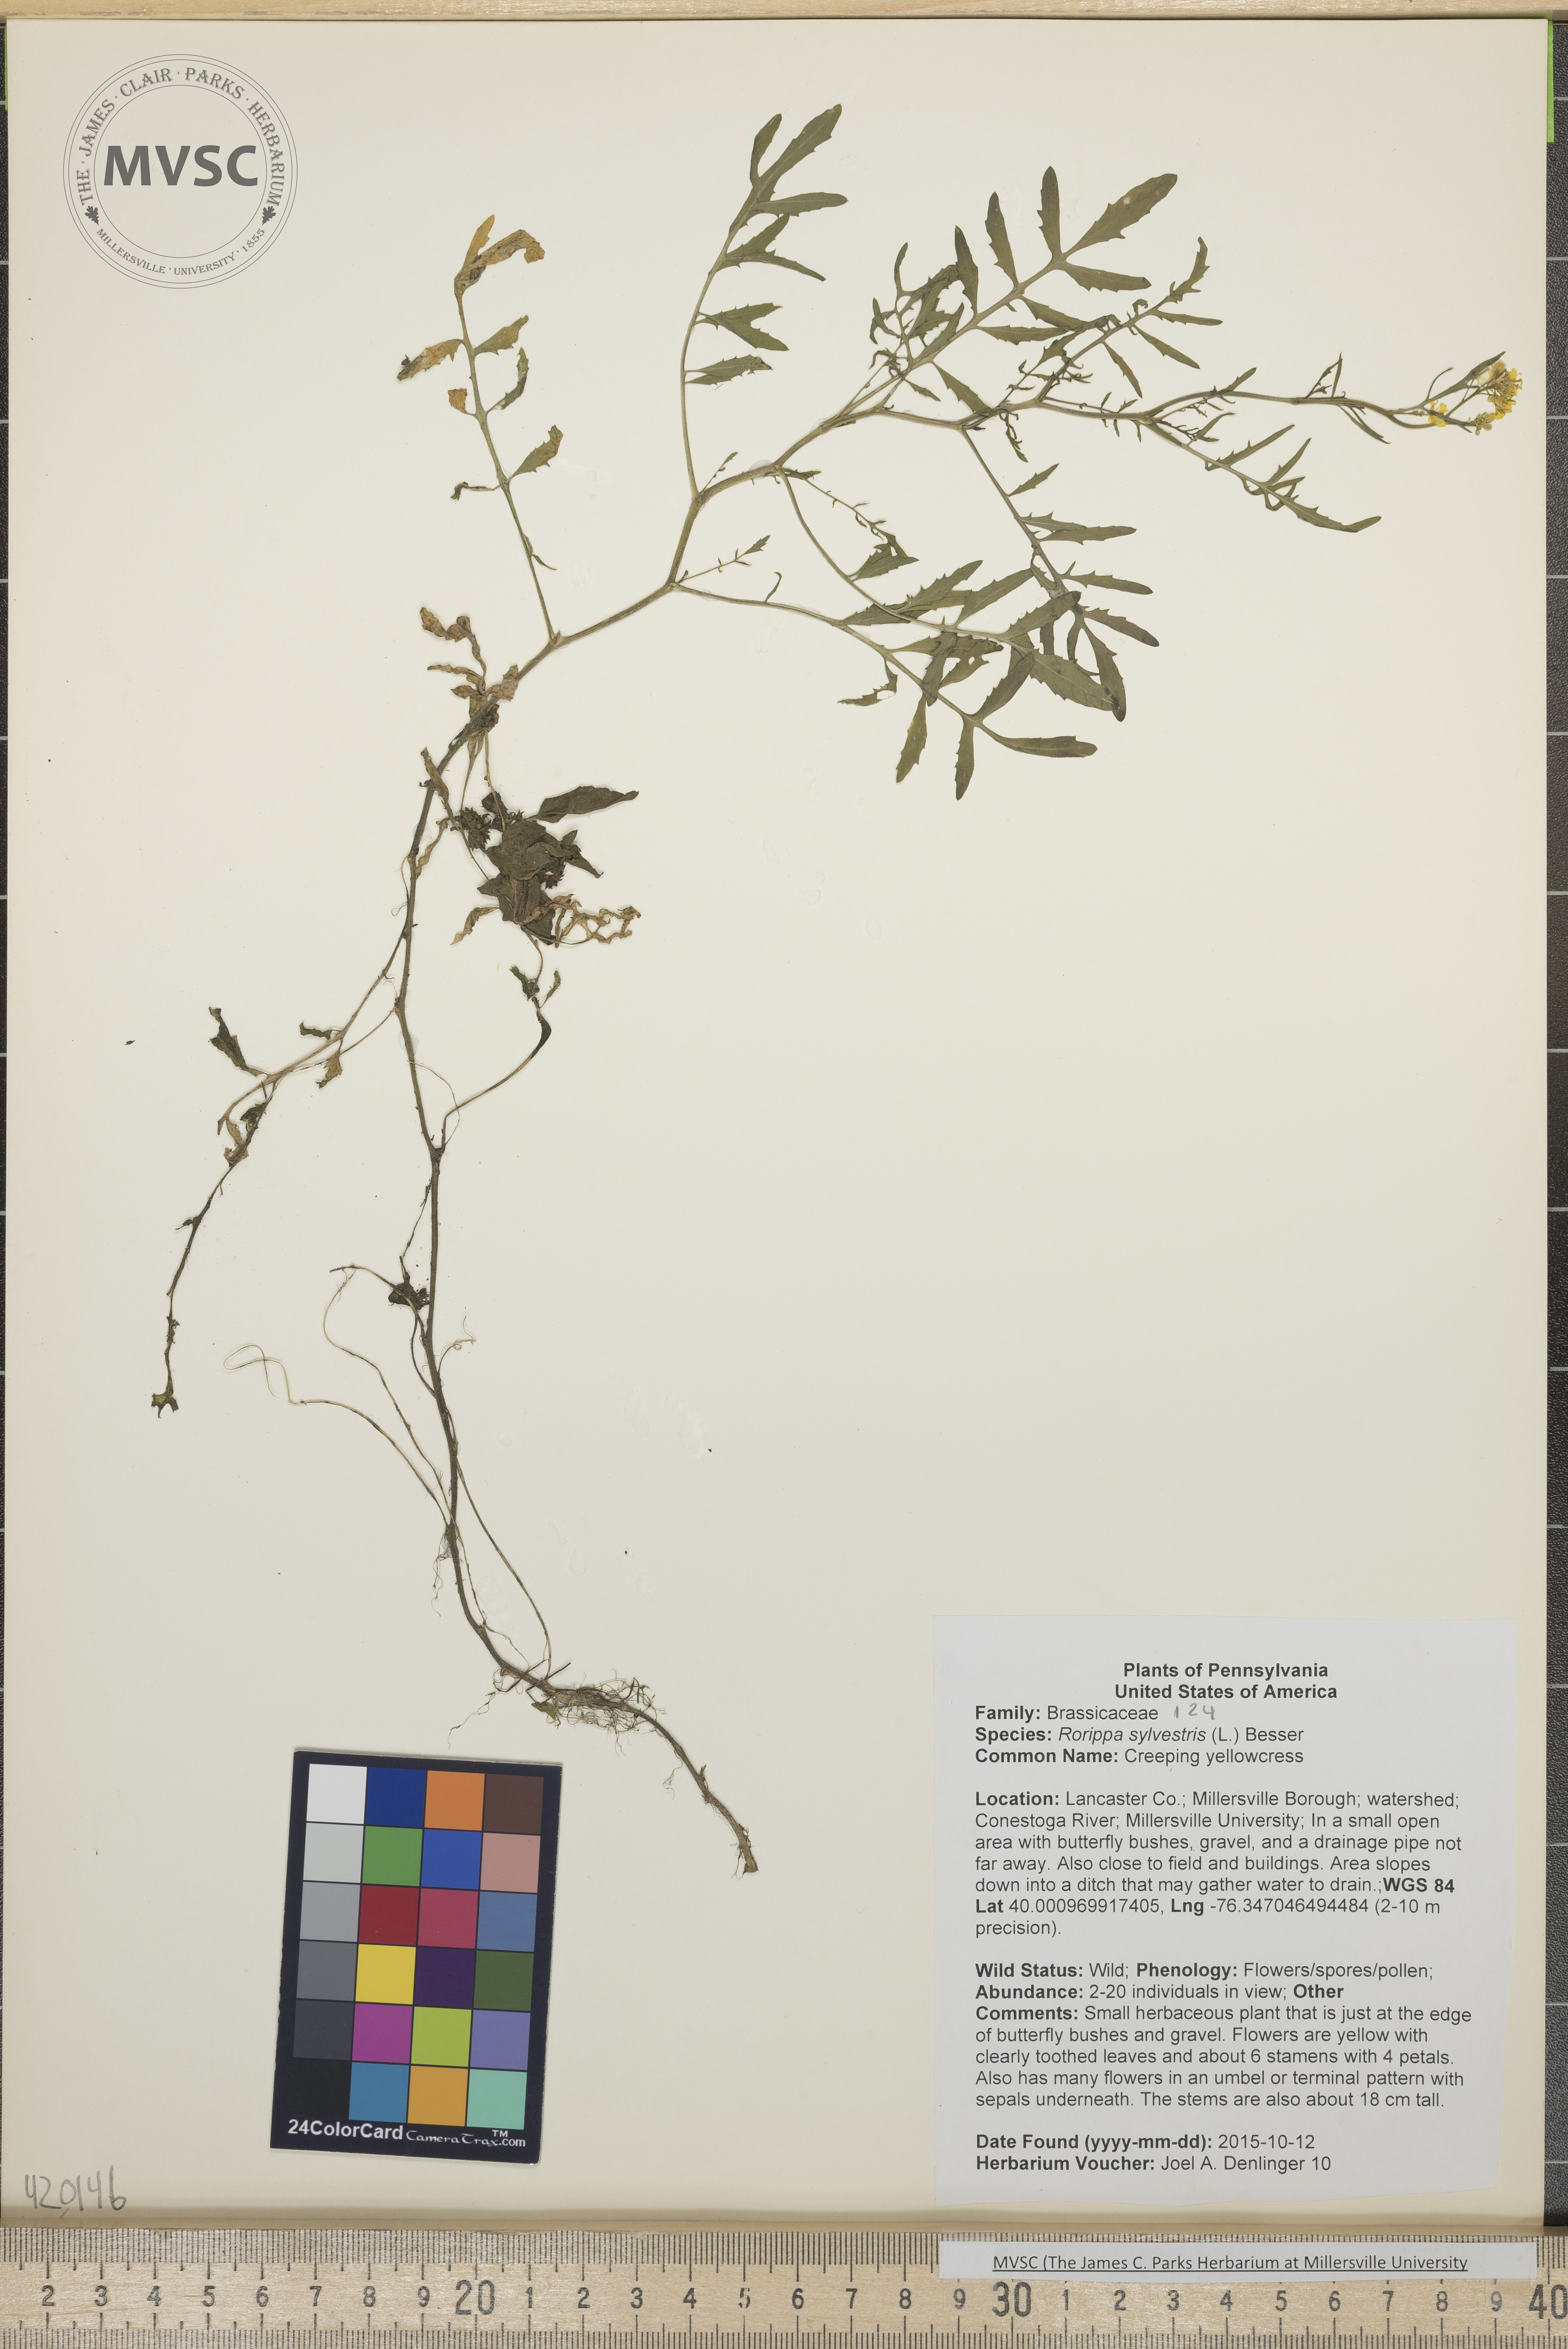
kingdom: Plantae
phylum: Tracheophyta
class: Magnoliopsida
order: Brassicales
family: Brassicaceae
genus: Rorippa
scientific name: Rorippa sylvestris
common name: Creeping yellowcress
